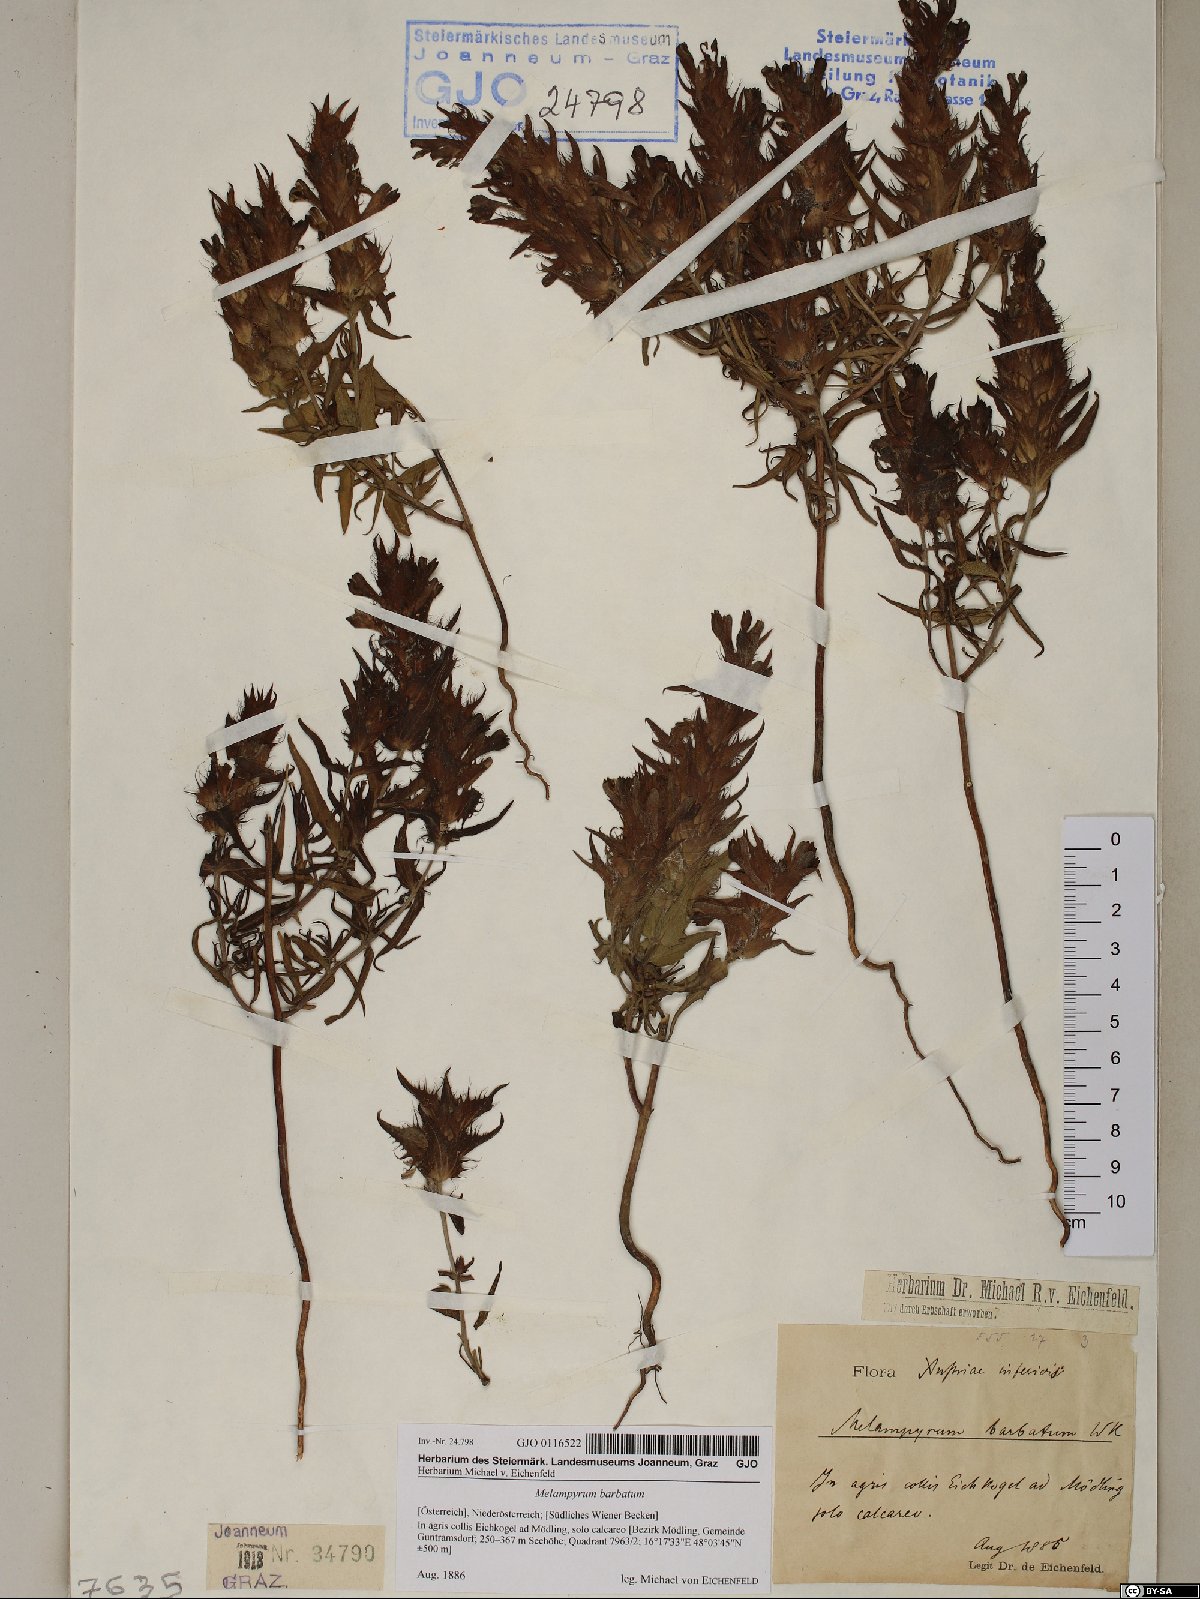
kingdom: Plantae
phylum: Tracheophyta
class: Magnoliopsida
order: Lamiales
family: Orobanchaceae
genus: Melampyrum
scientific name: Melampyrum barbatum
